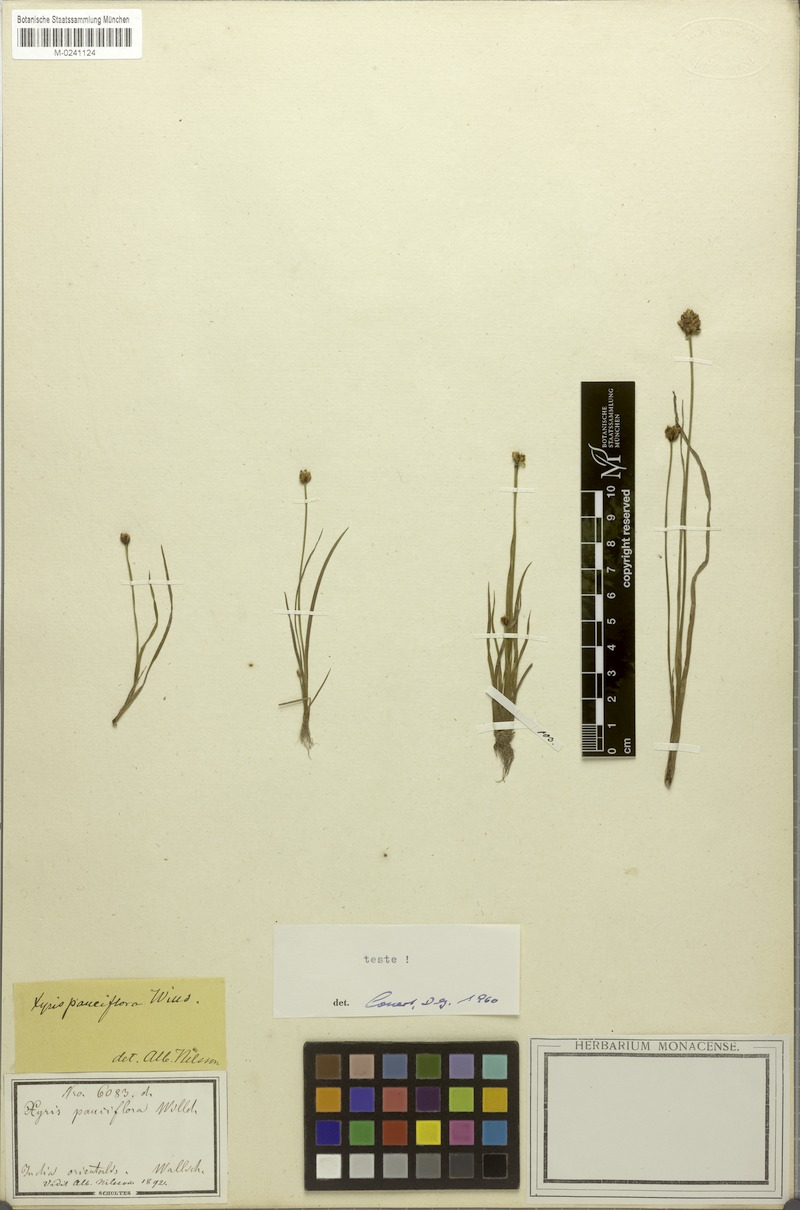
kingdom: Plantae
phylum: Tracheophyta
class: Liliopsida
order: Poales
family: Xyridaceae
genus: Xyris
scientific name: Xyris pauciflora
